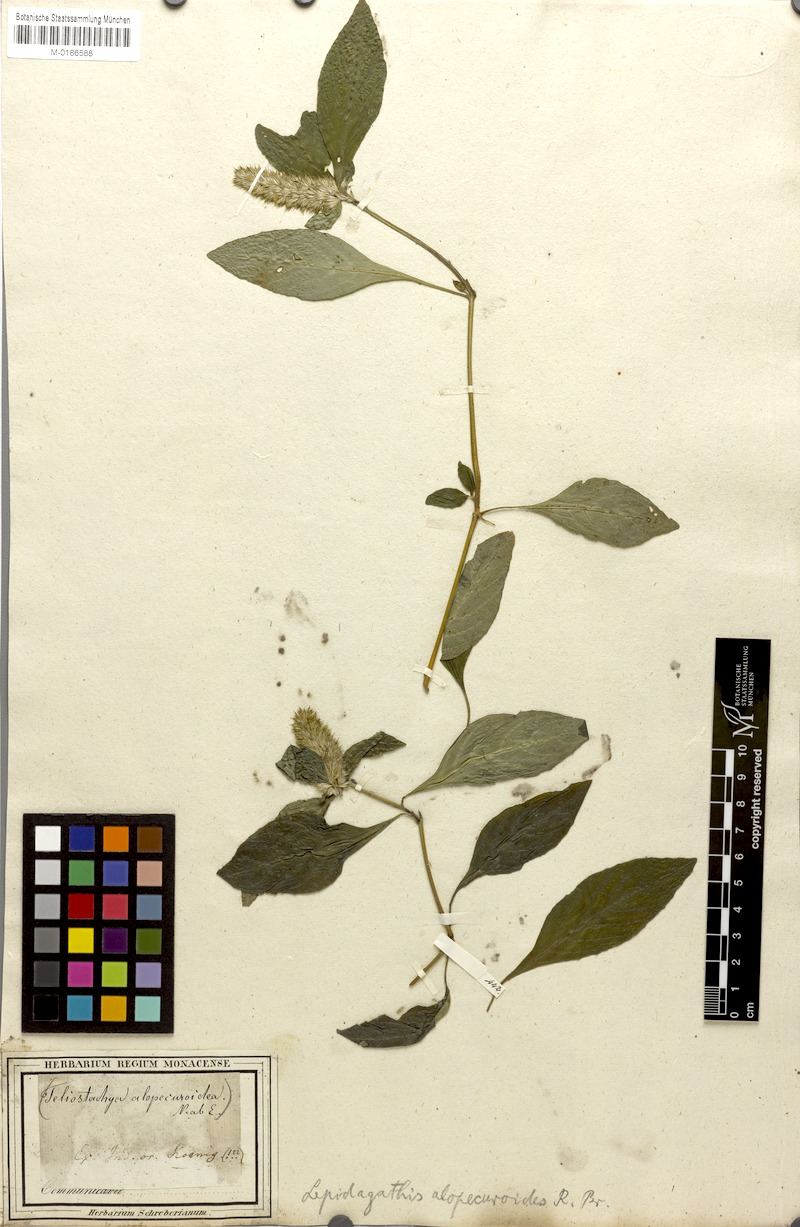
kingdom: Plantae
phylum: Tracheophyta
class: Magnoliopsida
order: Lamiales
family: Acanthaceae
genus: Lepidagathis
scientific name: Lepidagathis alopecuroidea
